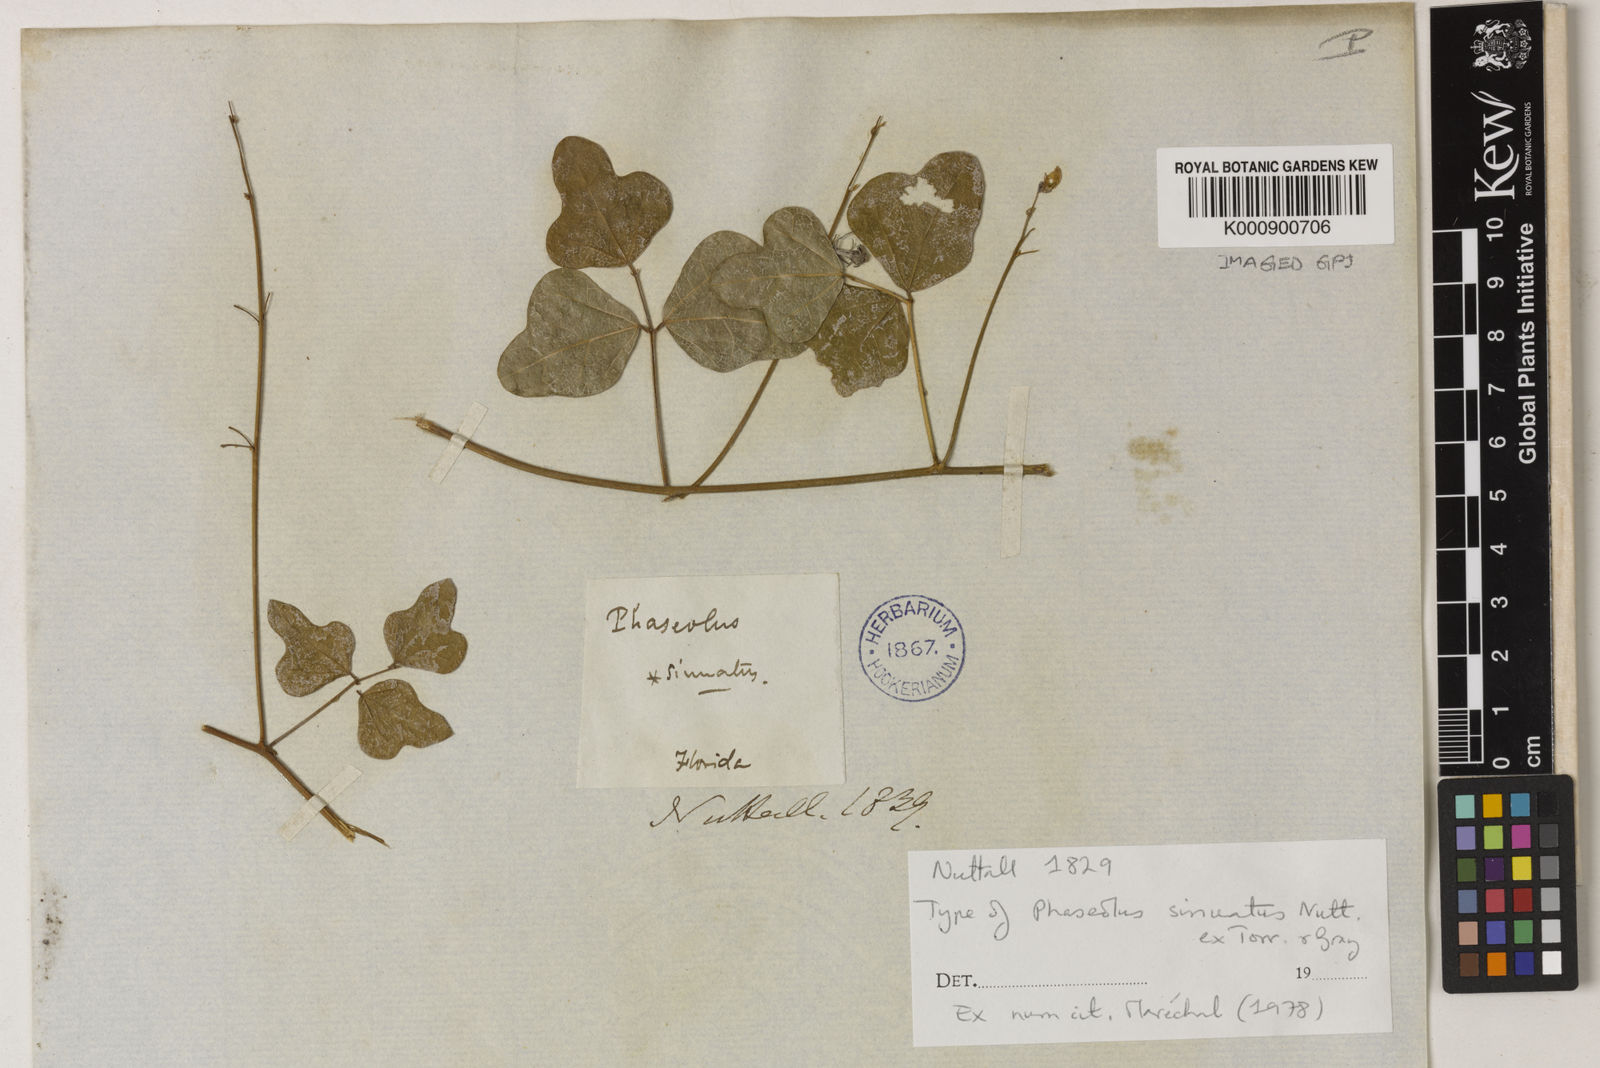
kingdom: Plantae
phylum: Tracheophyta
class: Magnoliopsida
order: Fabales
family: Fabaceae
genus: Phaseolus
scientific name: Phaseolus
